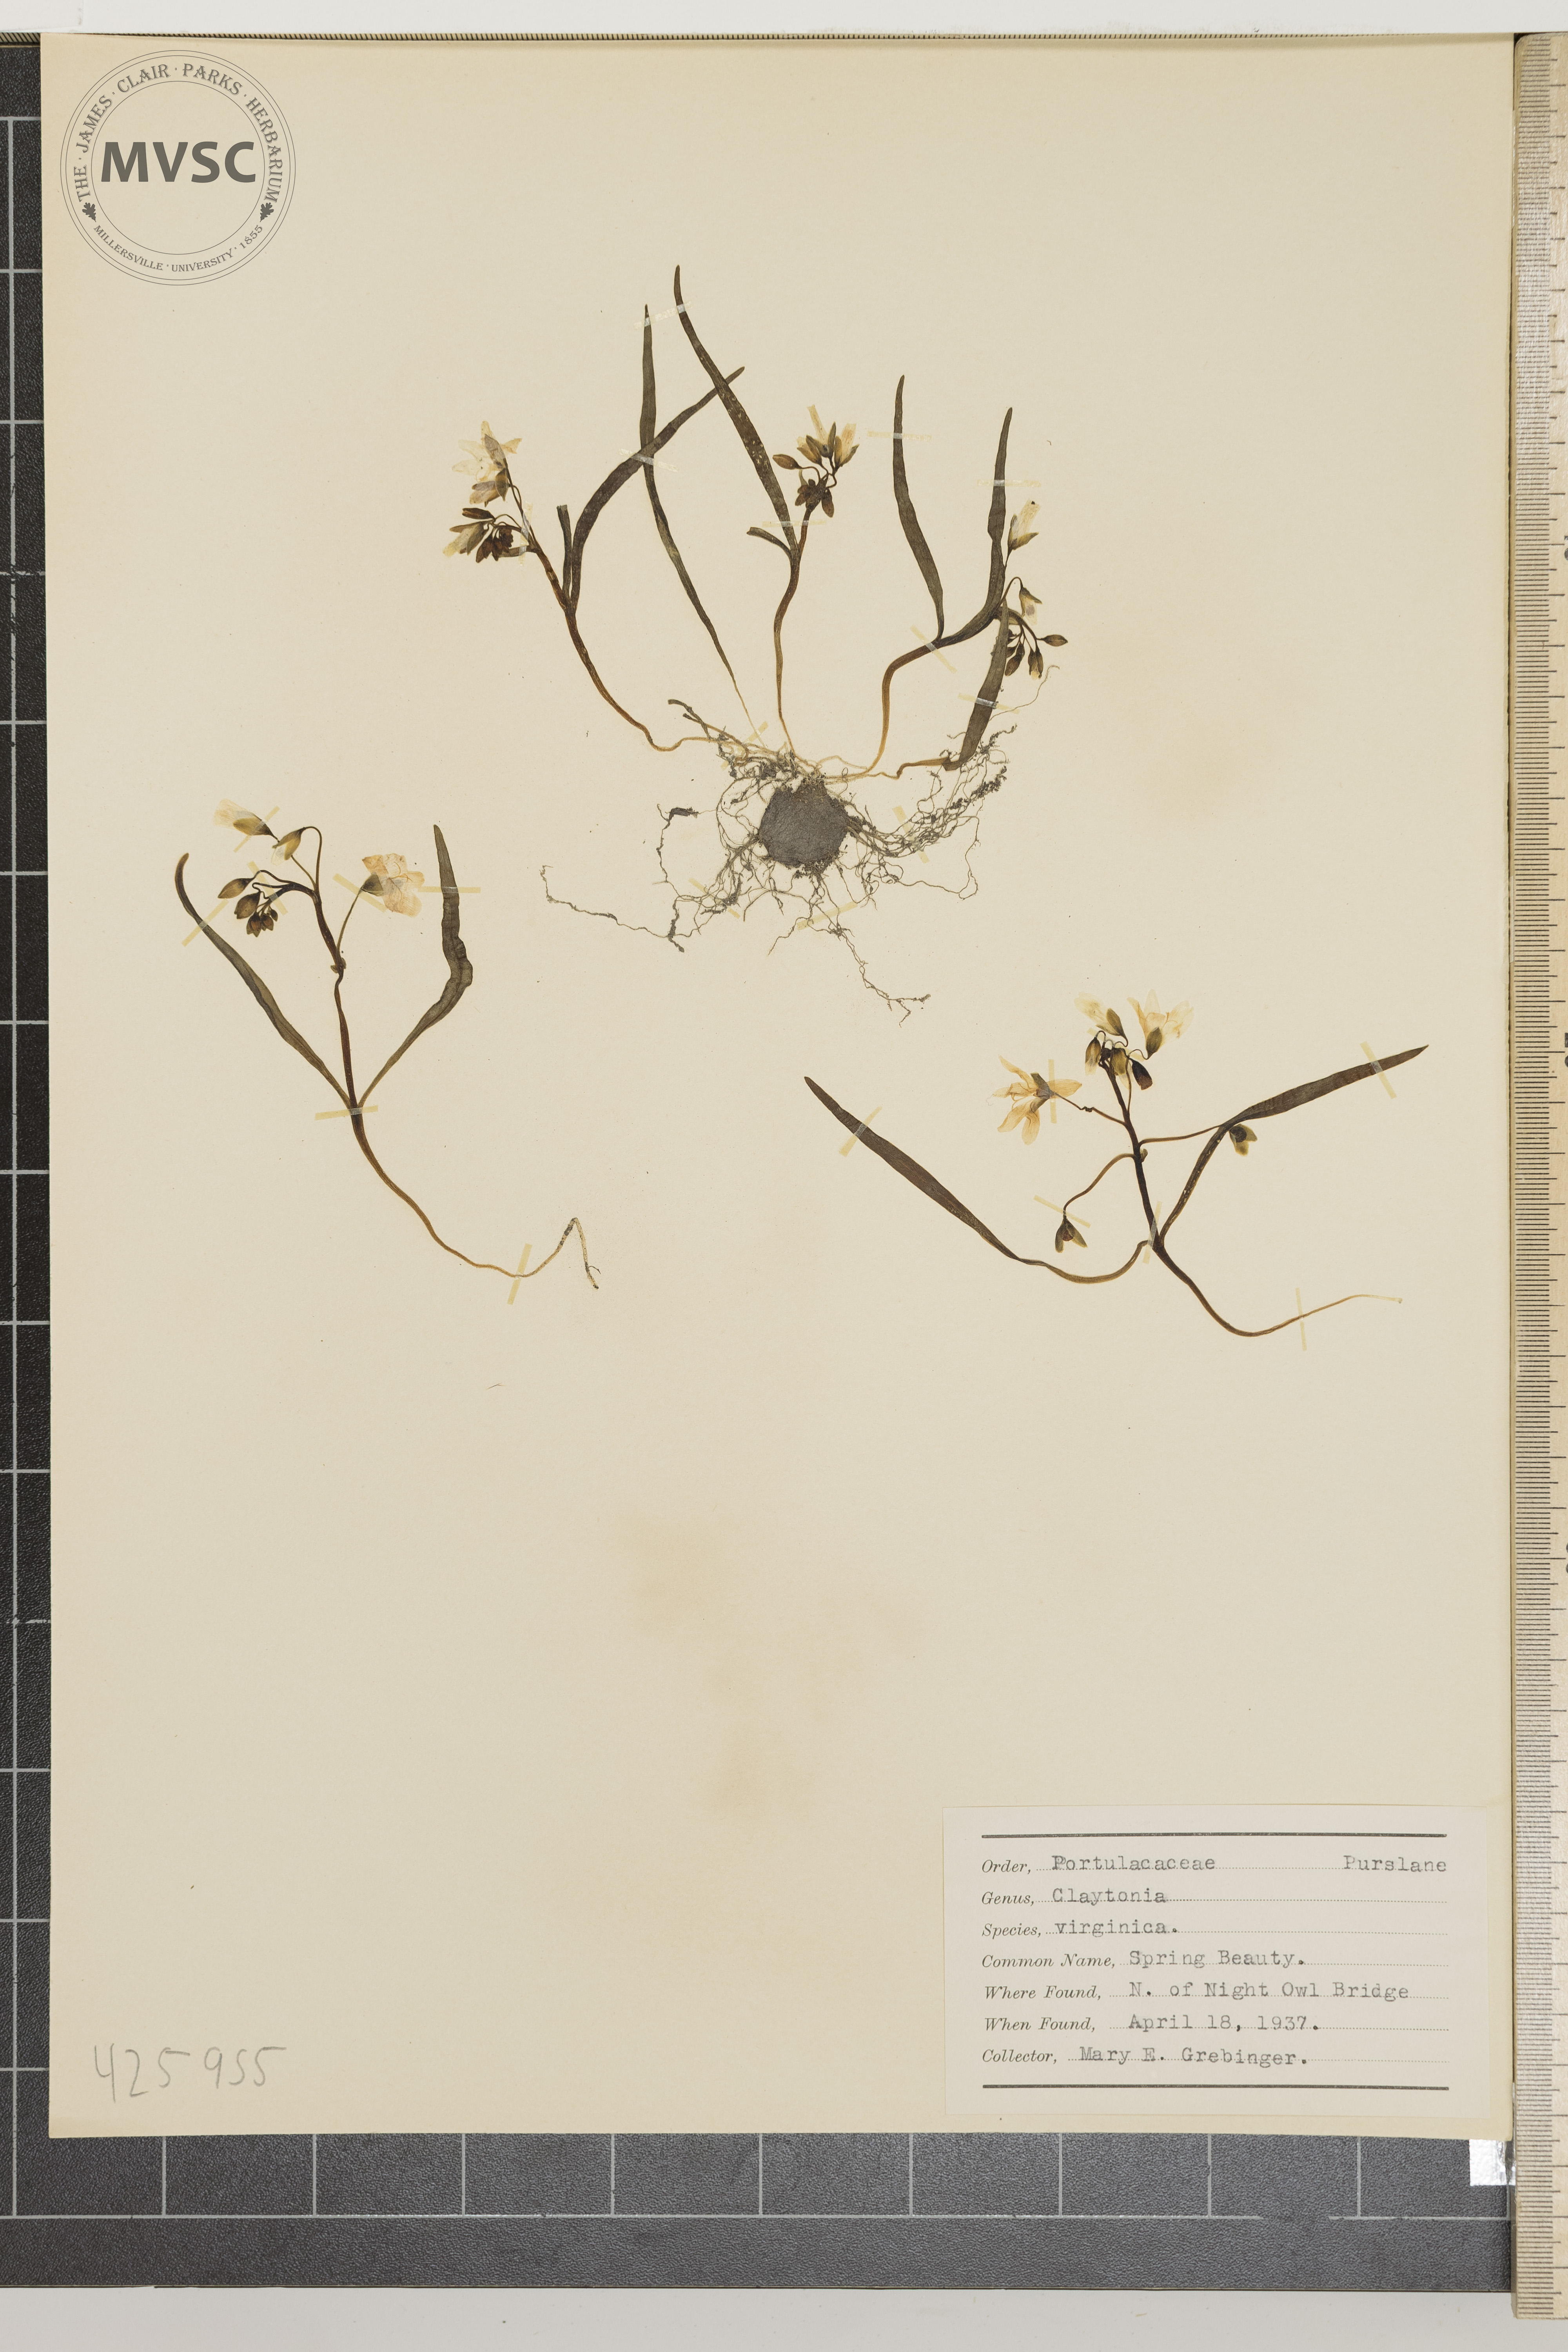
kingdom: Plantae
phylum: Tracheophyta
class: Magnoliopsida
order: Caryophyllales
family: Montiaceae
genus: Claytonia
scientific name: Claytonia virginica
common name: Spring beauty
